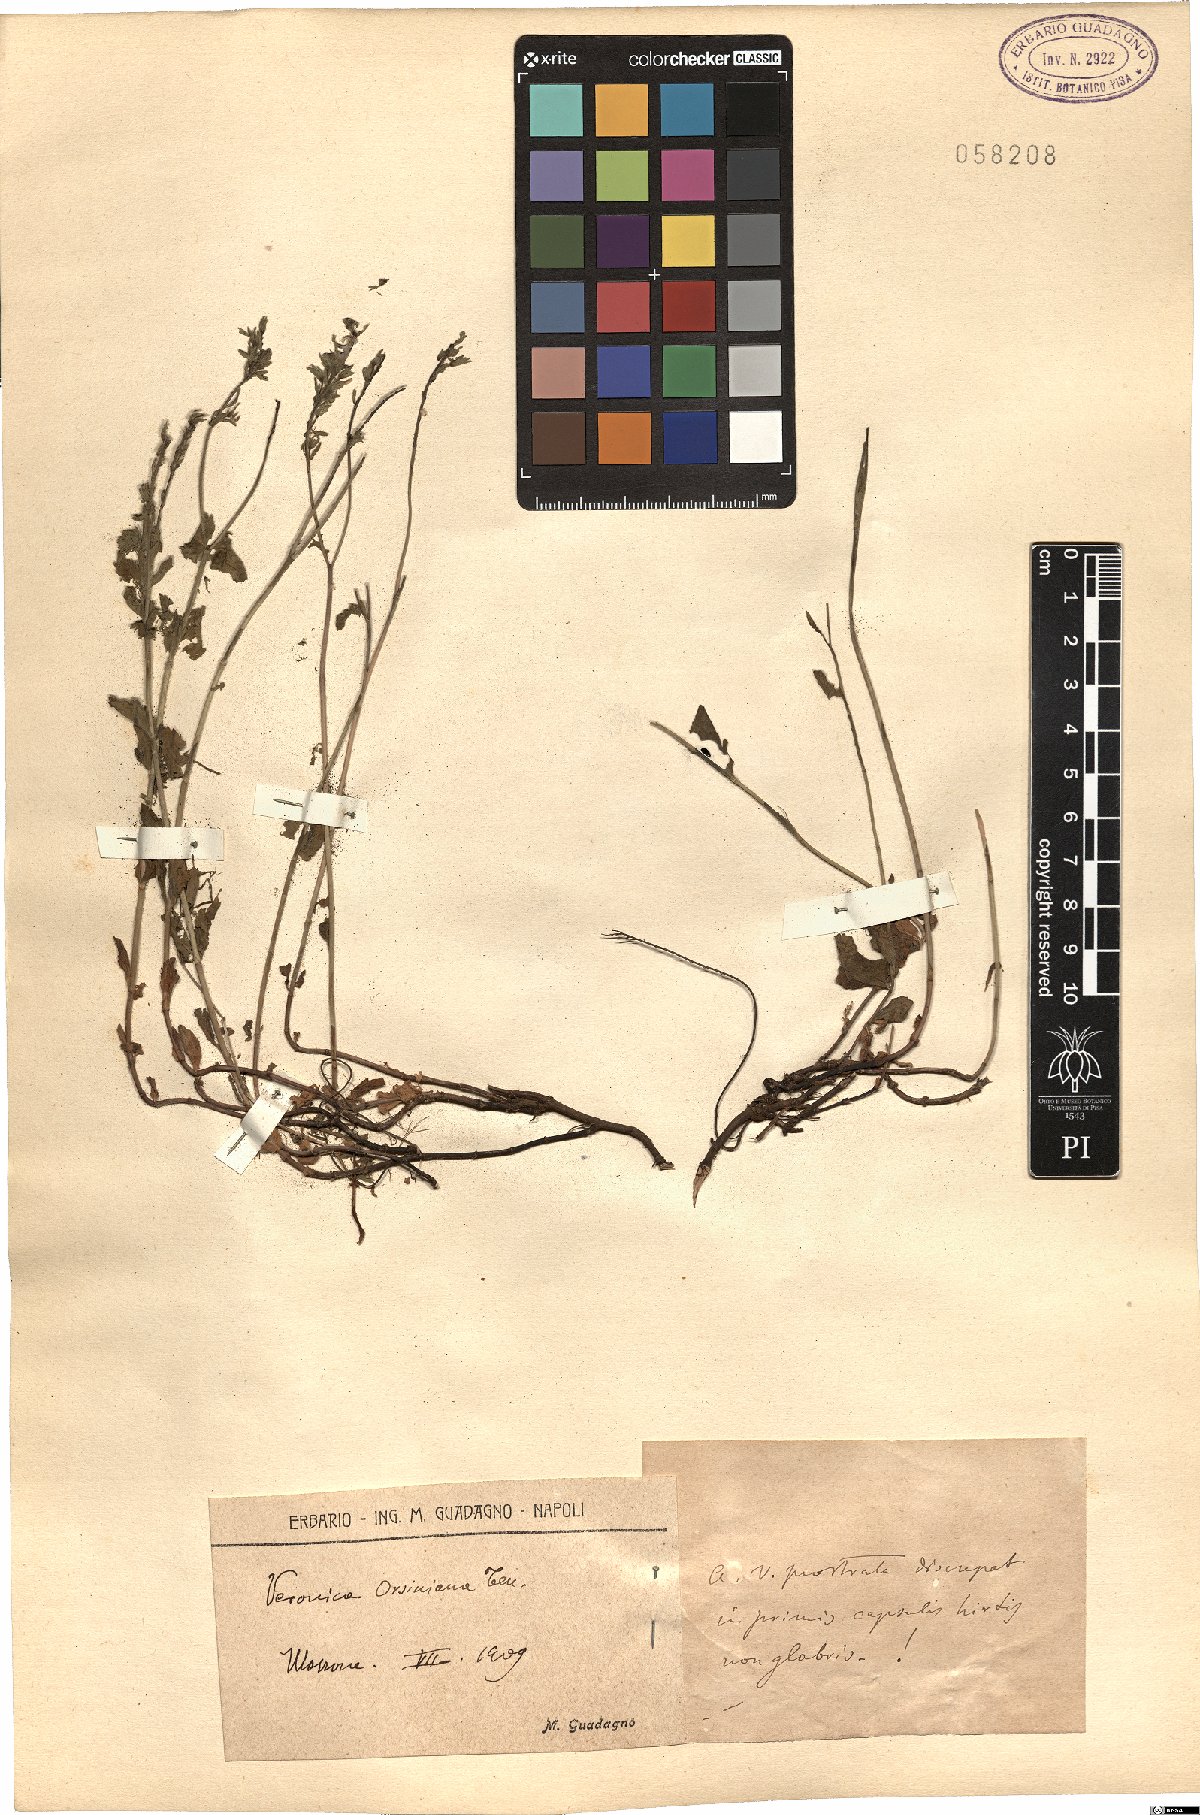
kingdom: Plantae
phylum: Tracheophyta
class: Magnoliopsida
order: Lamiales
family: Plantaginaceae
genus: Veronica
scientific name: Veronica orsiniana
